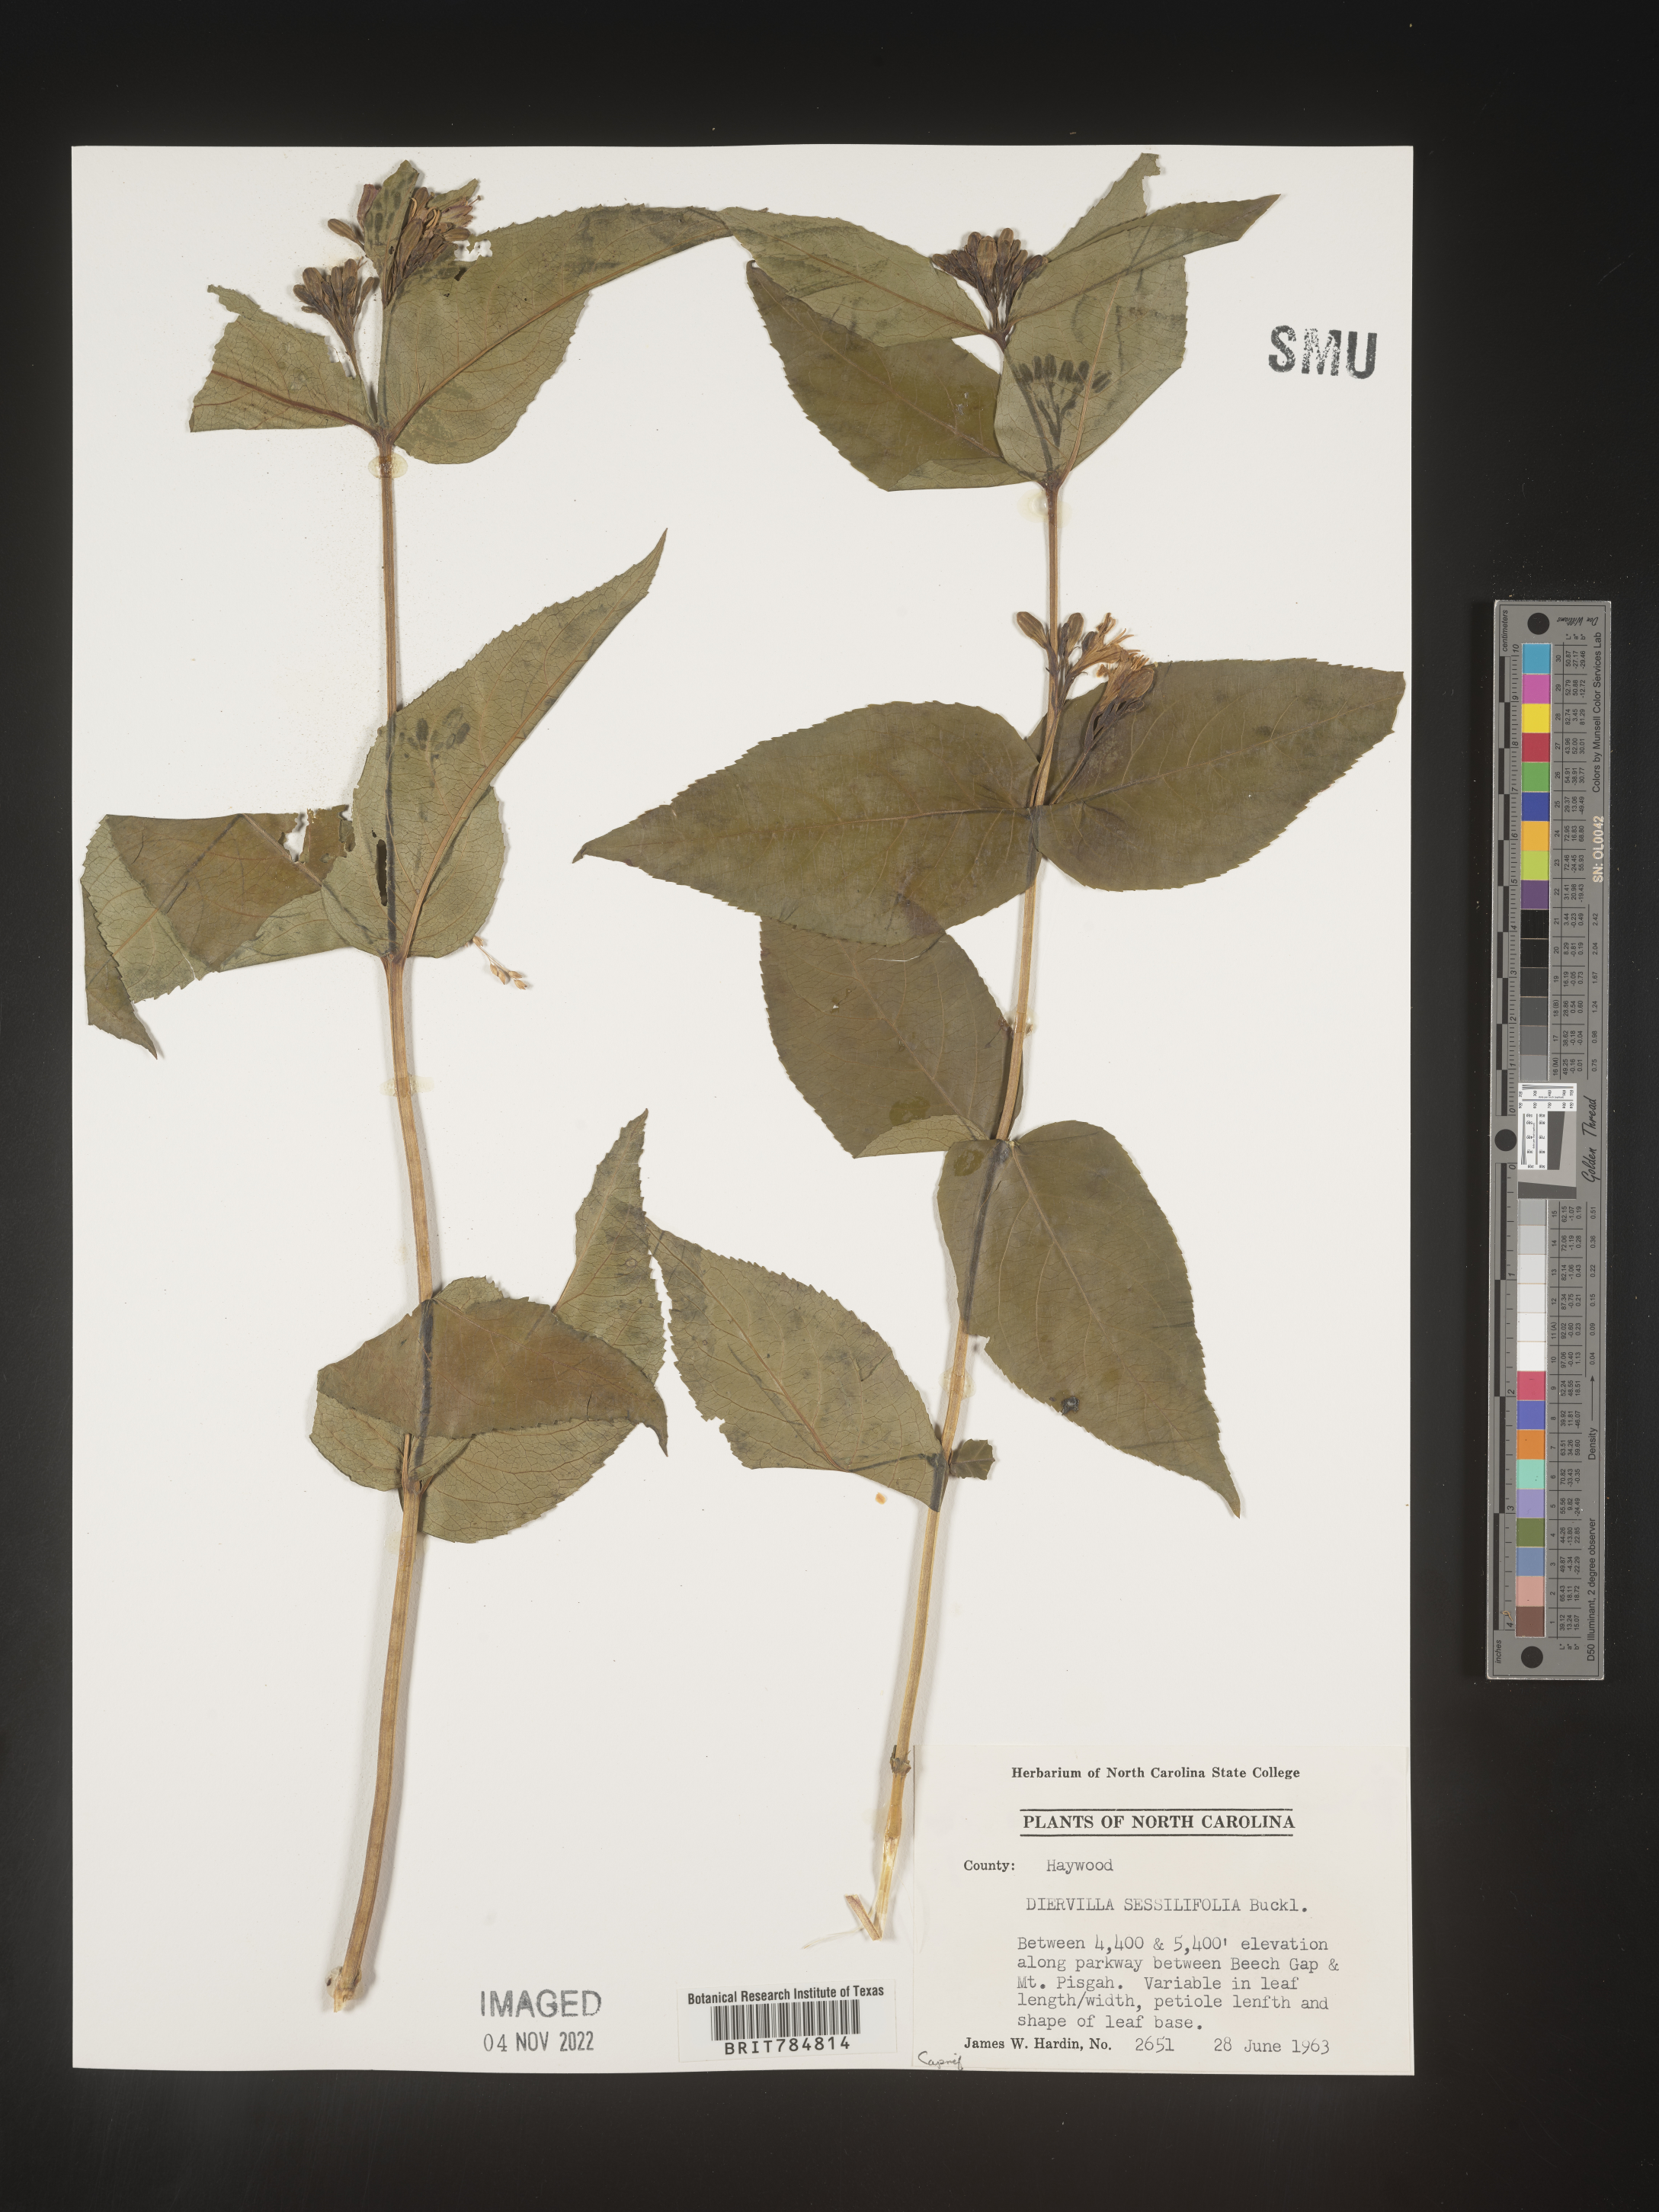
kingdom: Plantae
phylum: Tracheophyta
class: Magnoliopsida
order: Dipsacales
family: Caprifoliaceae
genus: Diervilla
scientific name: Diervilla
